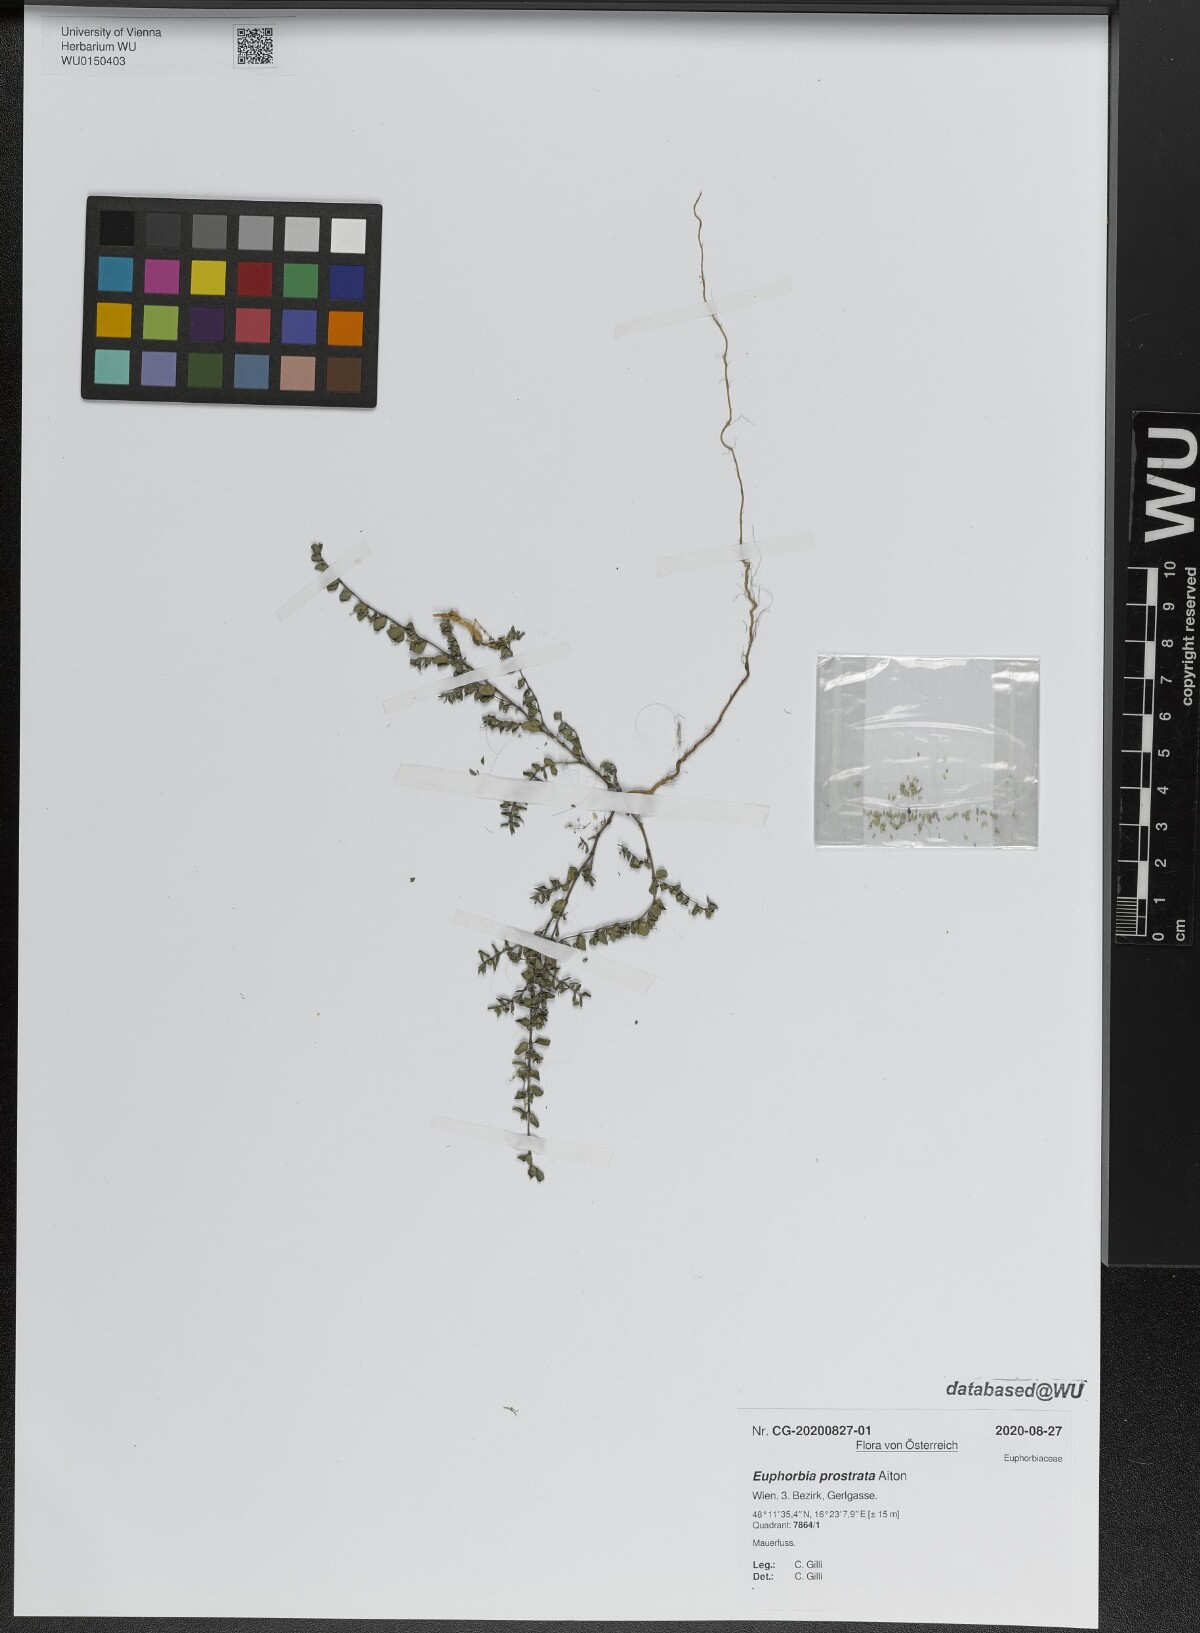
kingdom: Plantae
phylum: Tracheophyta
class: Magnoliopsida
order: Malpighiales
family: Euphorbiaceae
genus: Euphorbia
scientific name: Euphorbia prostrata
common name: Prostrate sandmat
